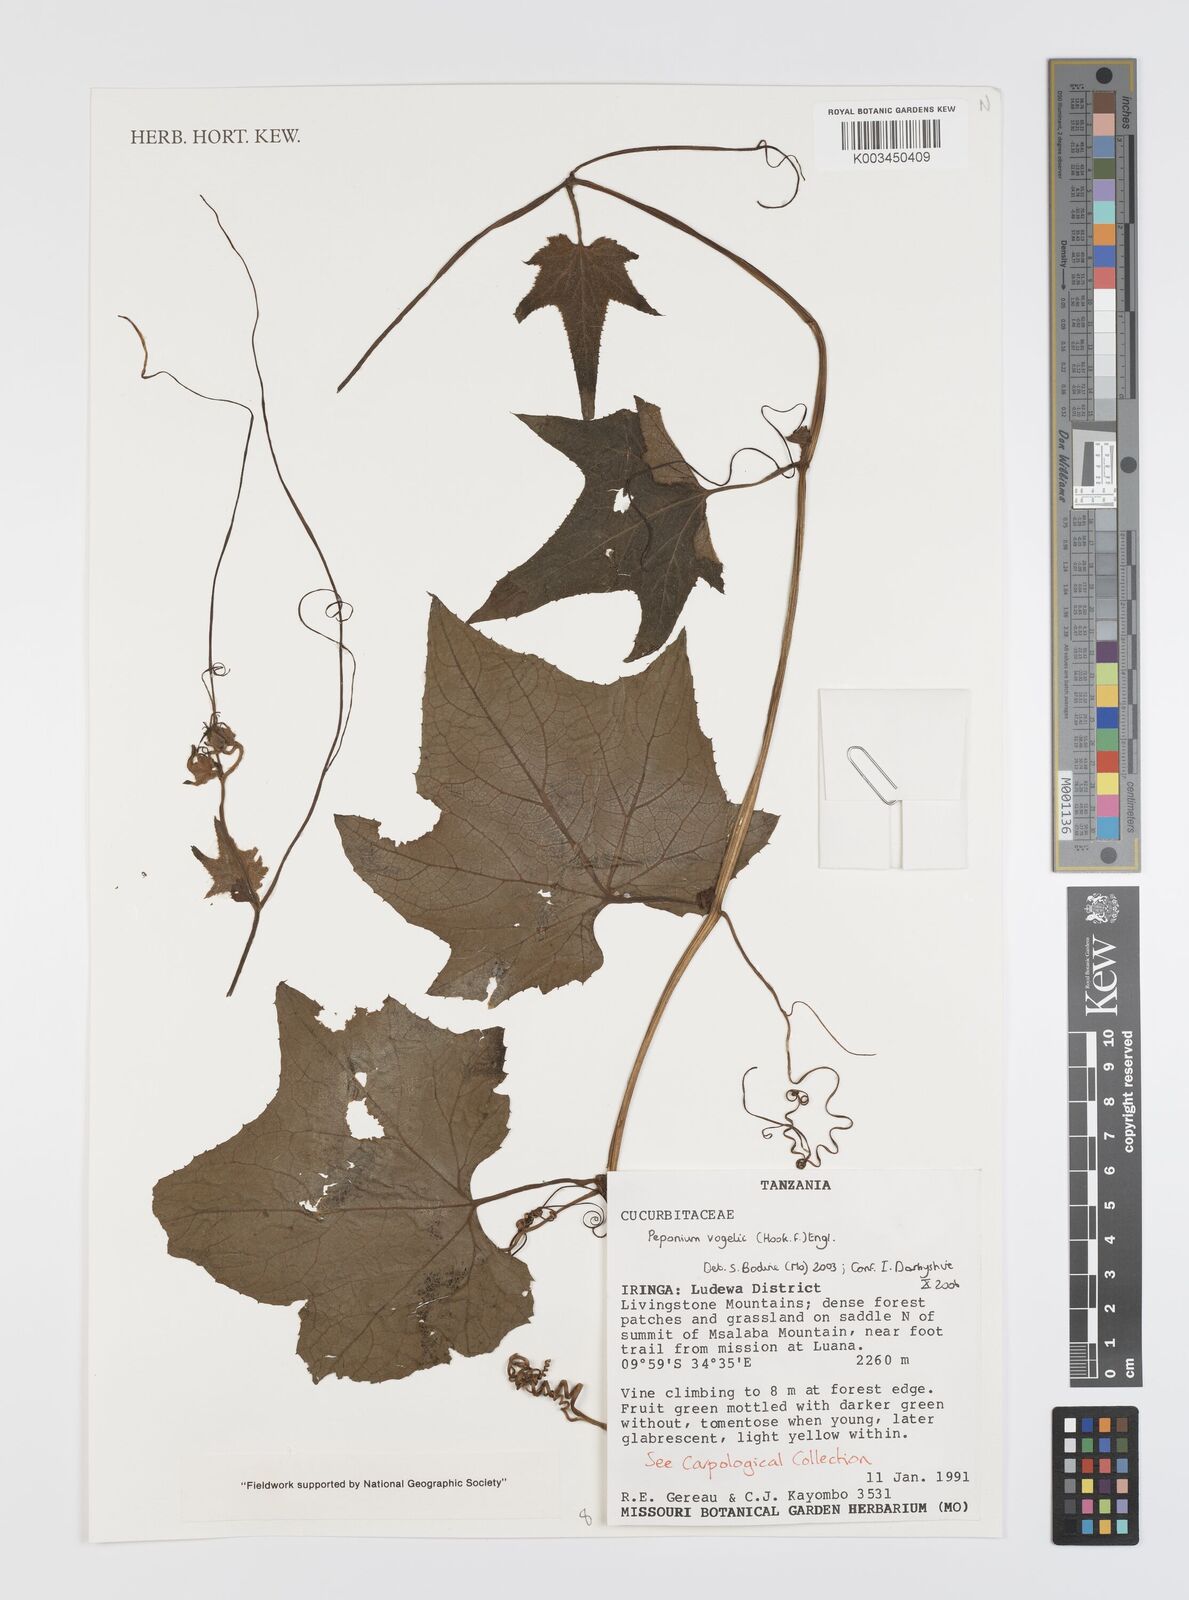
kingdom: Plantae
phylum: Tracheophyta
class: Magnoliopsida
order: Cucurbitales
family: Cucurbitaceae
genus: Peponium
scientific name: Peponium vogelii
